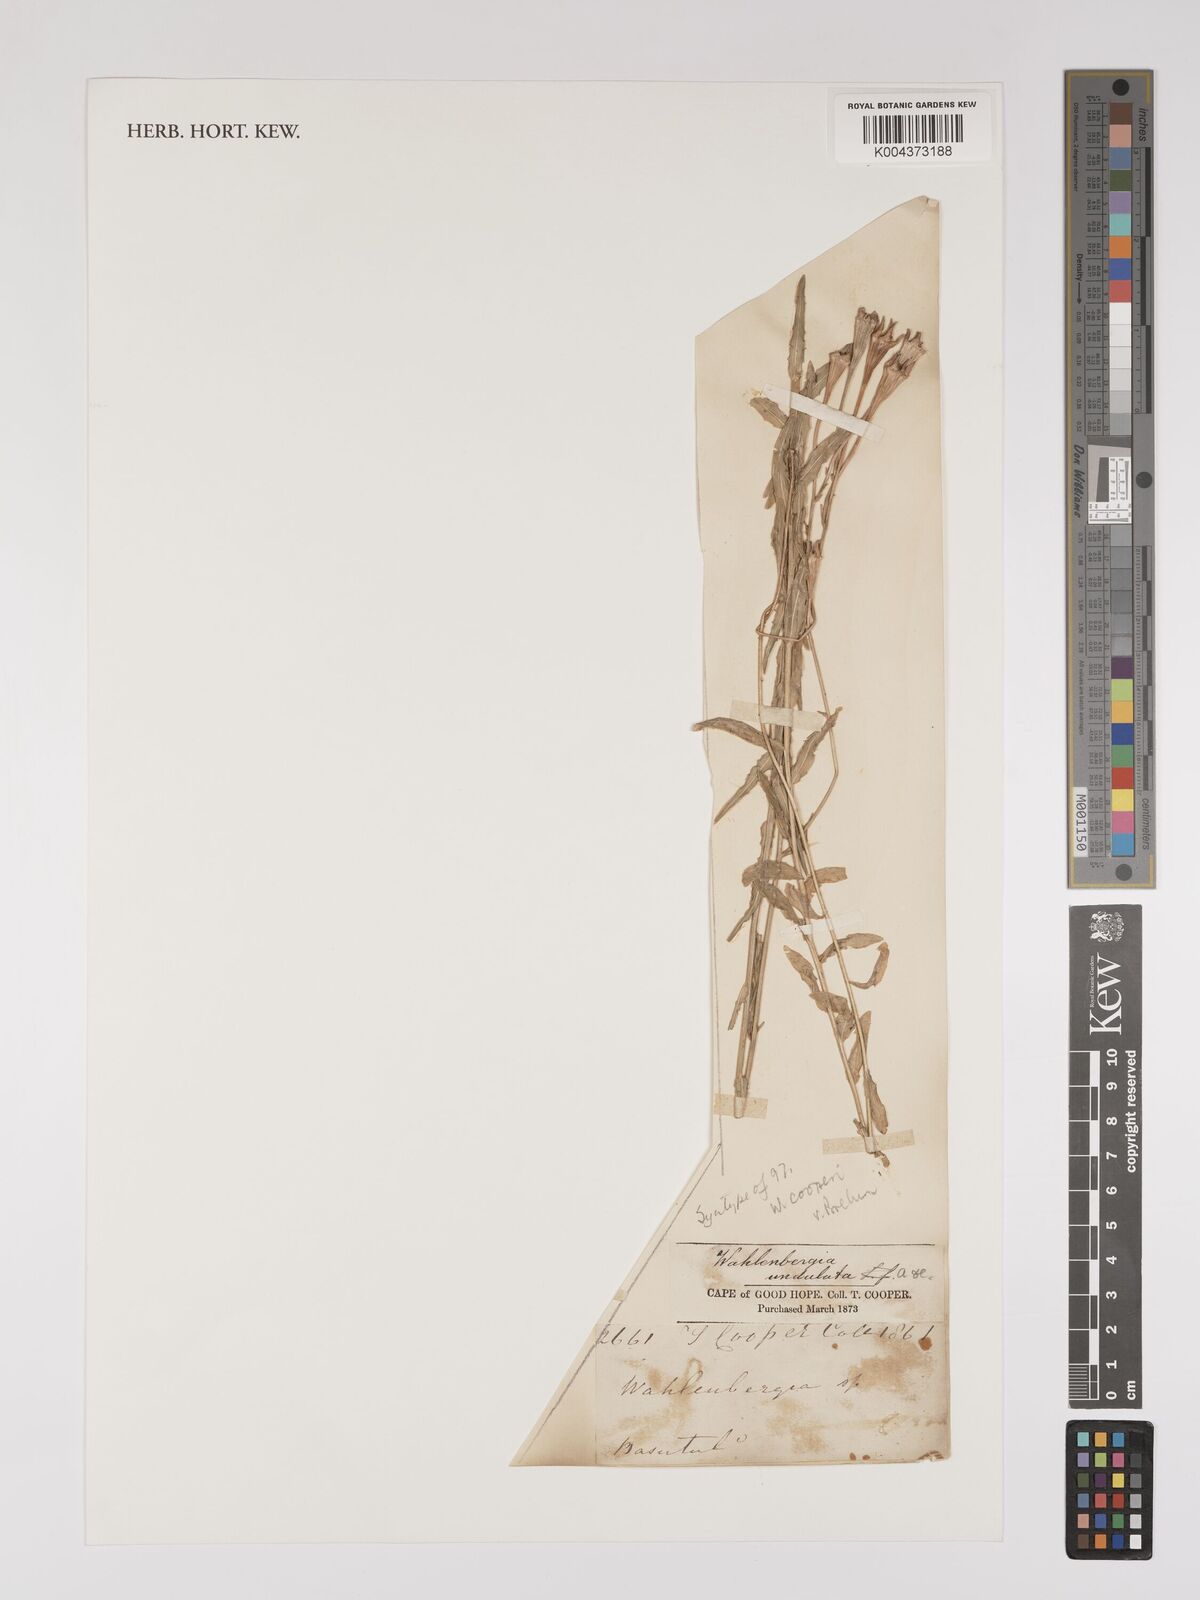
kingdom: Plantae
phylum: Tracheophyta
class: Magnoliopsida
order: Asterales
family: Campanulaceae
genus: Wahlenbergia
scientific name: Wahlenbergia undulata
